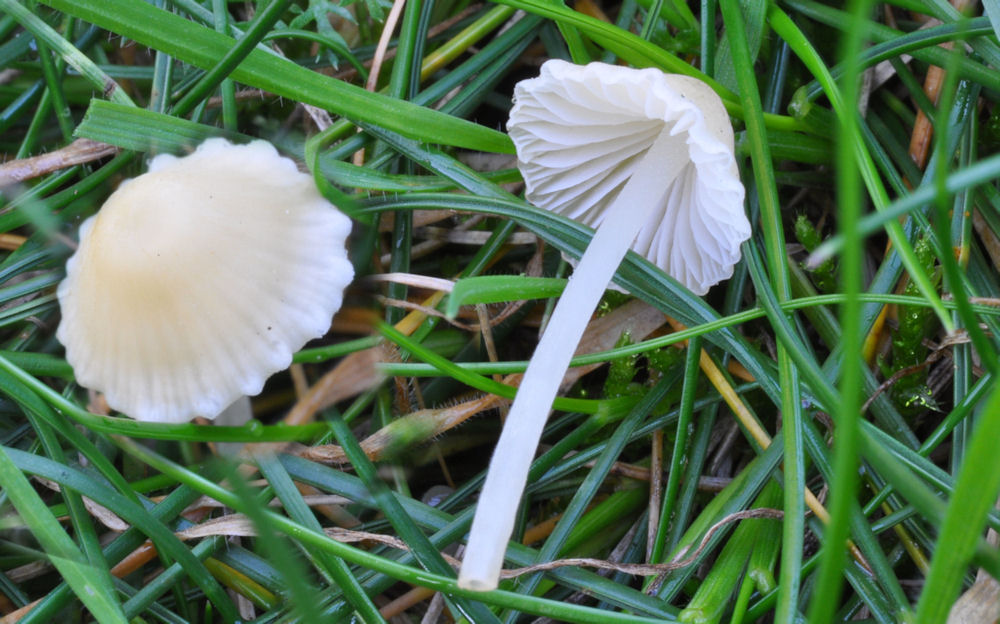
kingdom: Fungi
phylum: Basidiomycota
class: Agaricomycetes
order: Agaricales
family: Mycenaceae
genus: Atheniella
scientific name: Atheniella flavoalba
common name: gulhvid huesvamp
